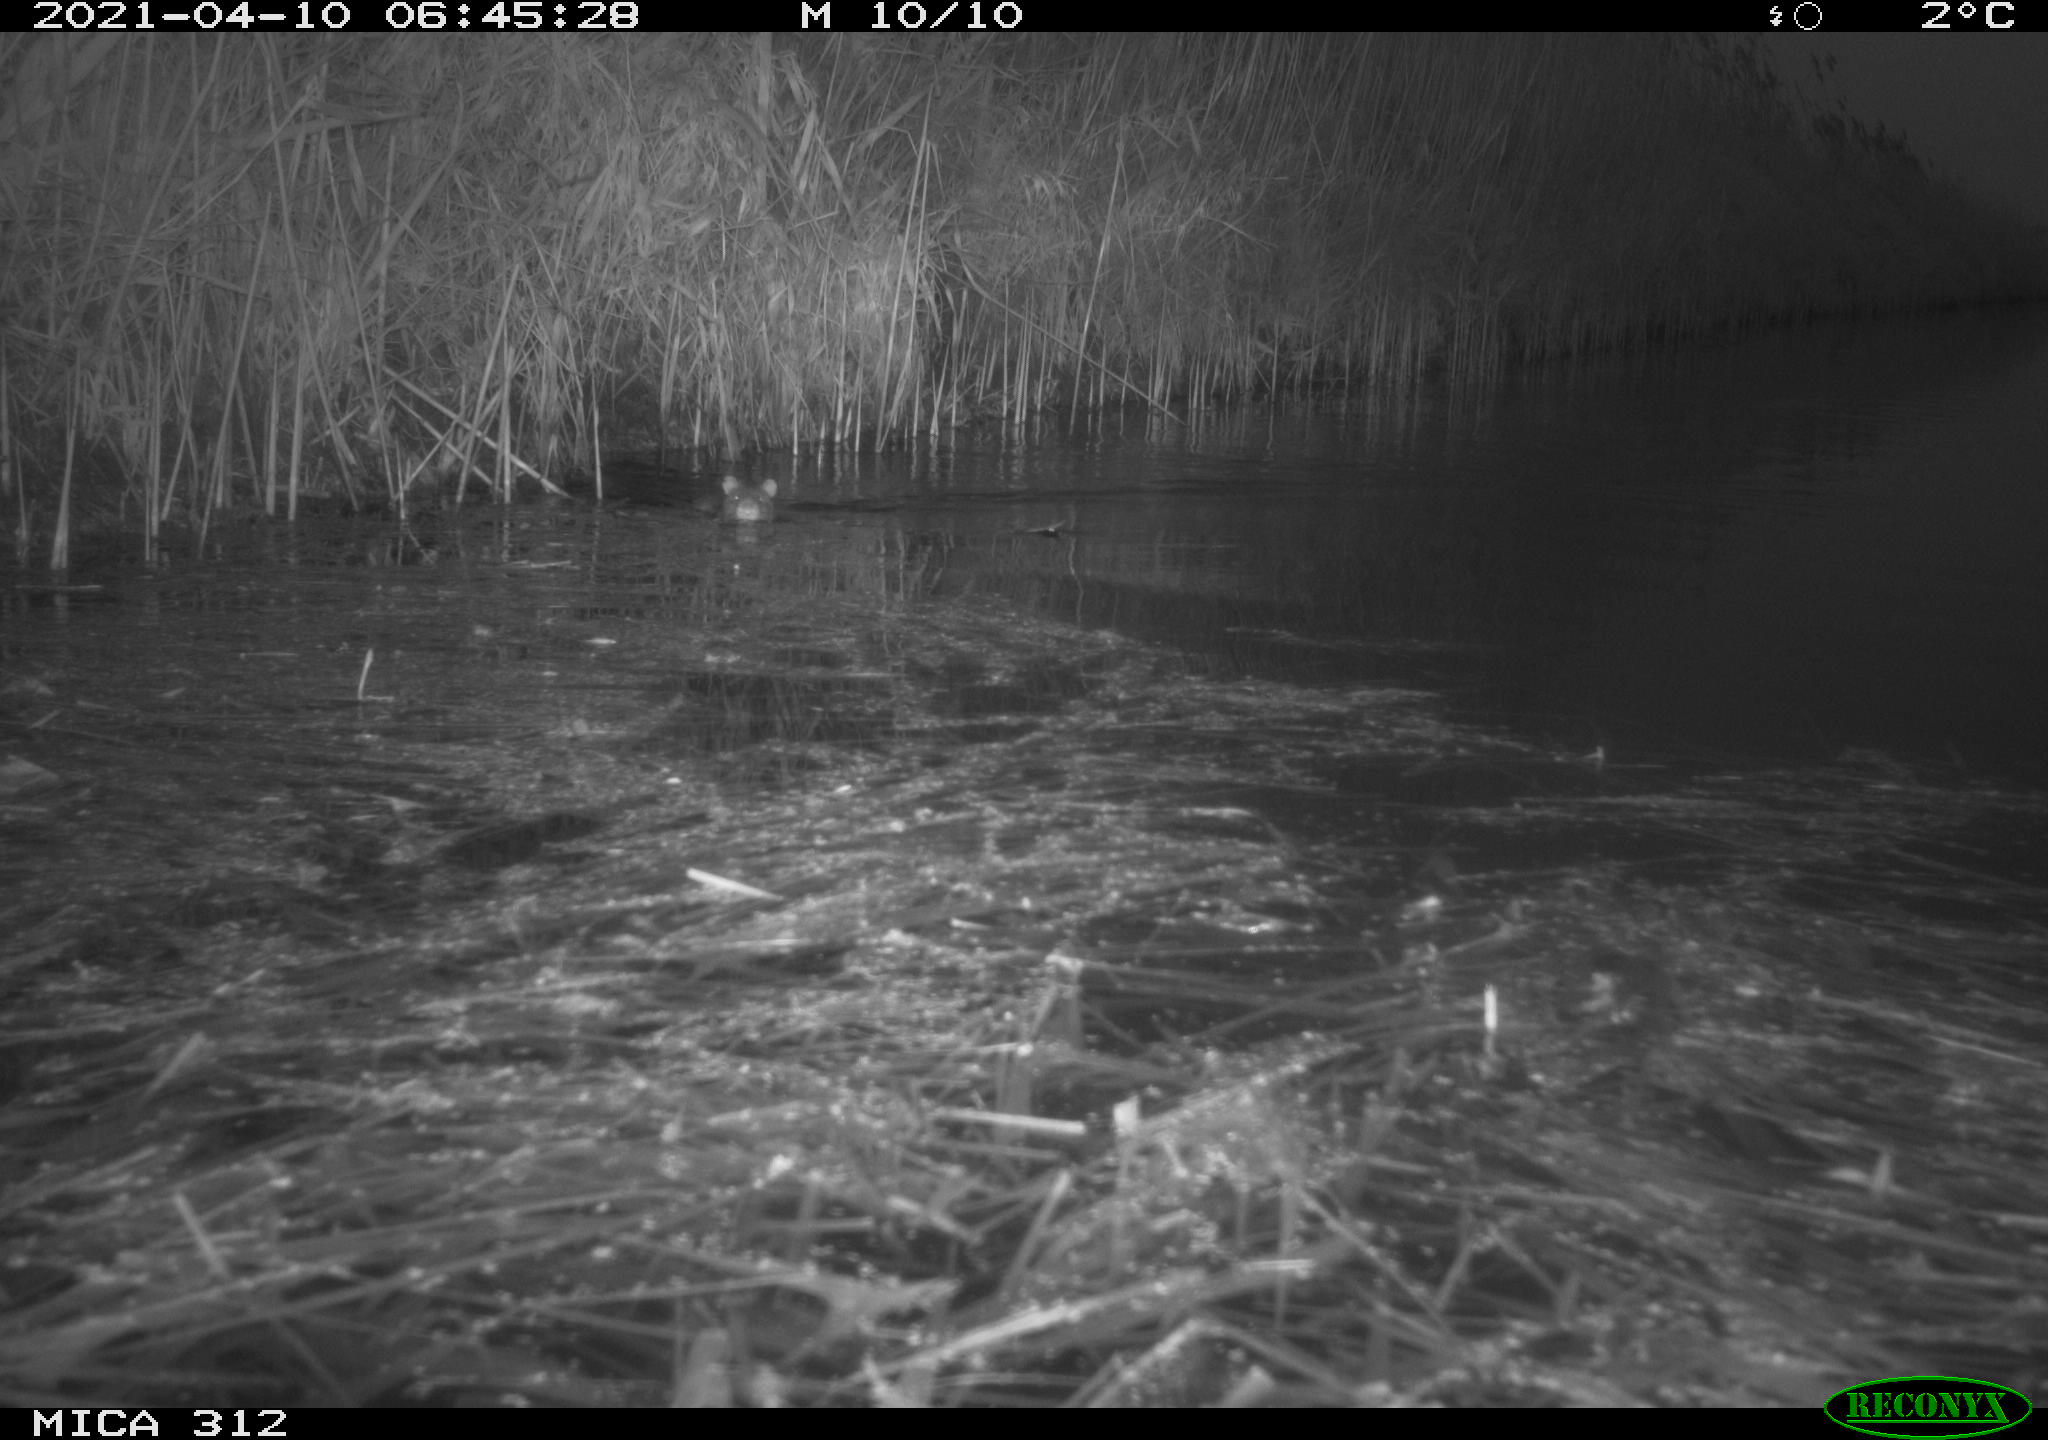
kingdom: Animalia
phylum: Chordata
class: Mammalia
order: Rodentia
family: Muridae
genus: Rattus
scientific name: Rattus norvegicus
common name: Brown rat
